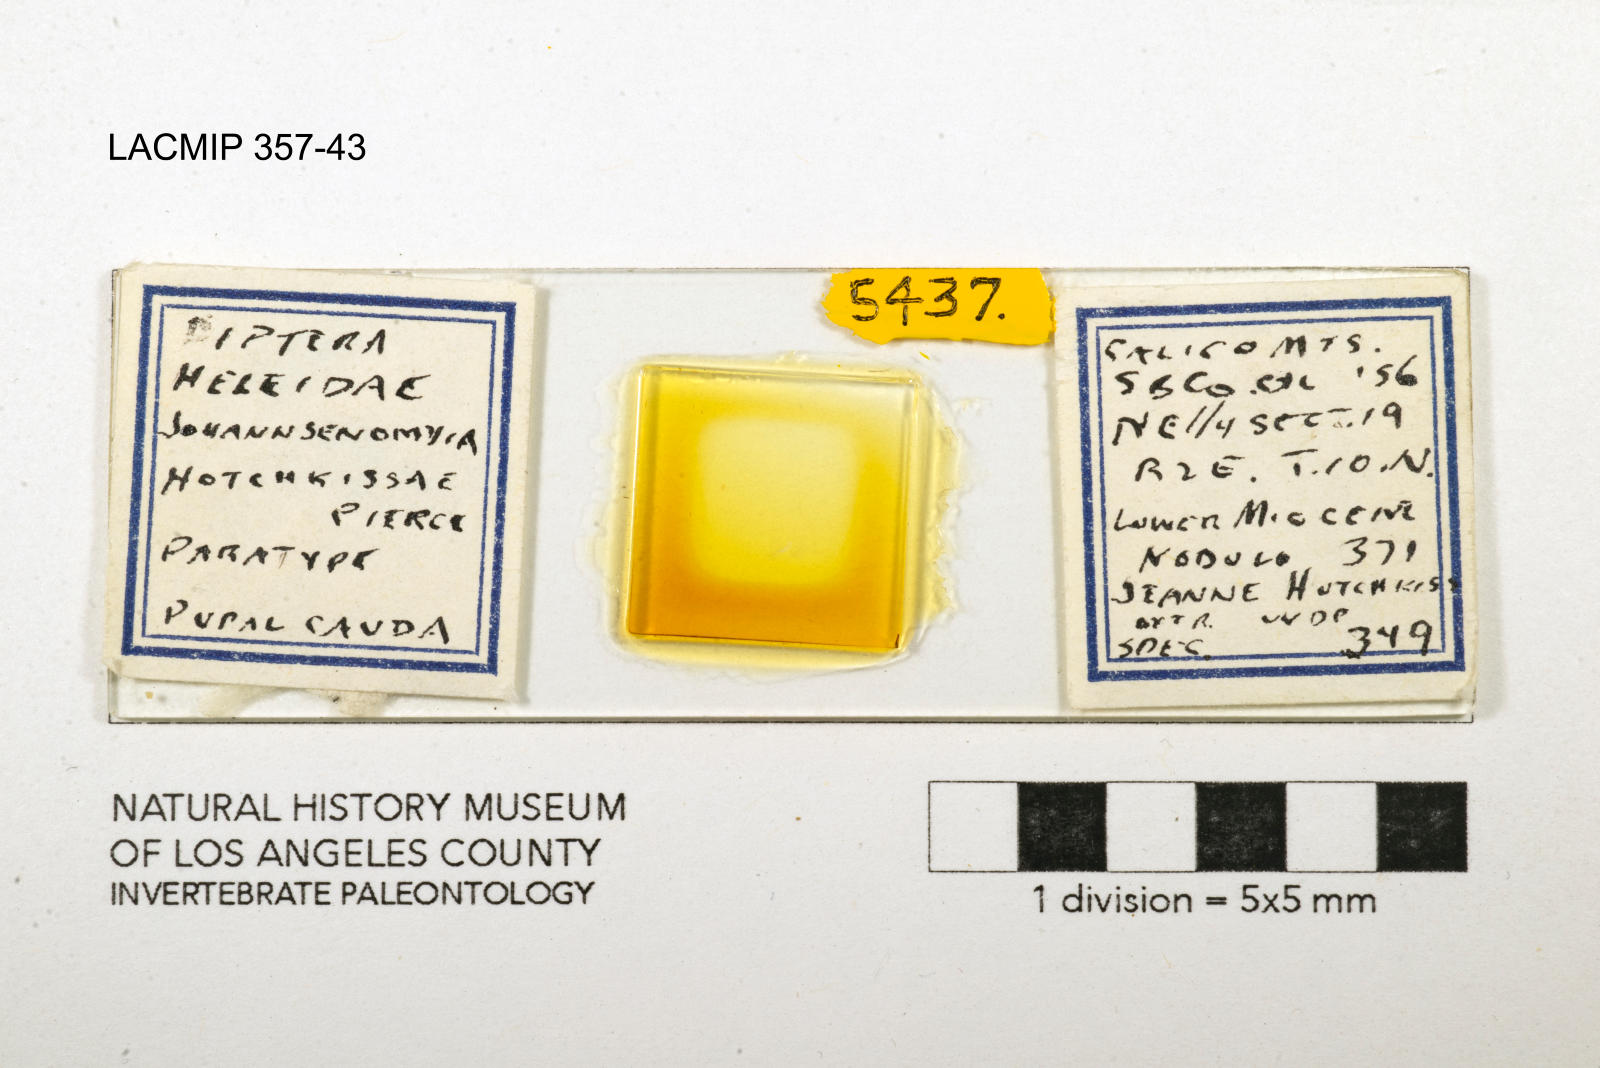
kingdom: Animalia
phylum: Arthropoda
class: Insecta
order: Diptera
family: Ceratopogonidae
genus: Johannsenomyia
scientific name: Johannsenomyia
